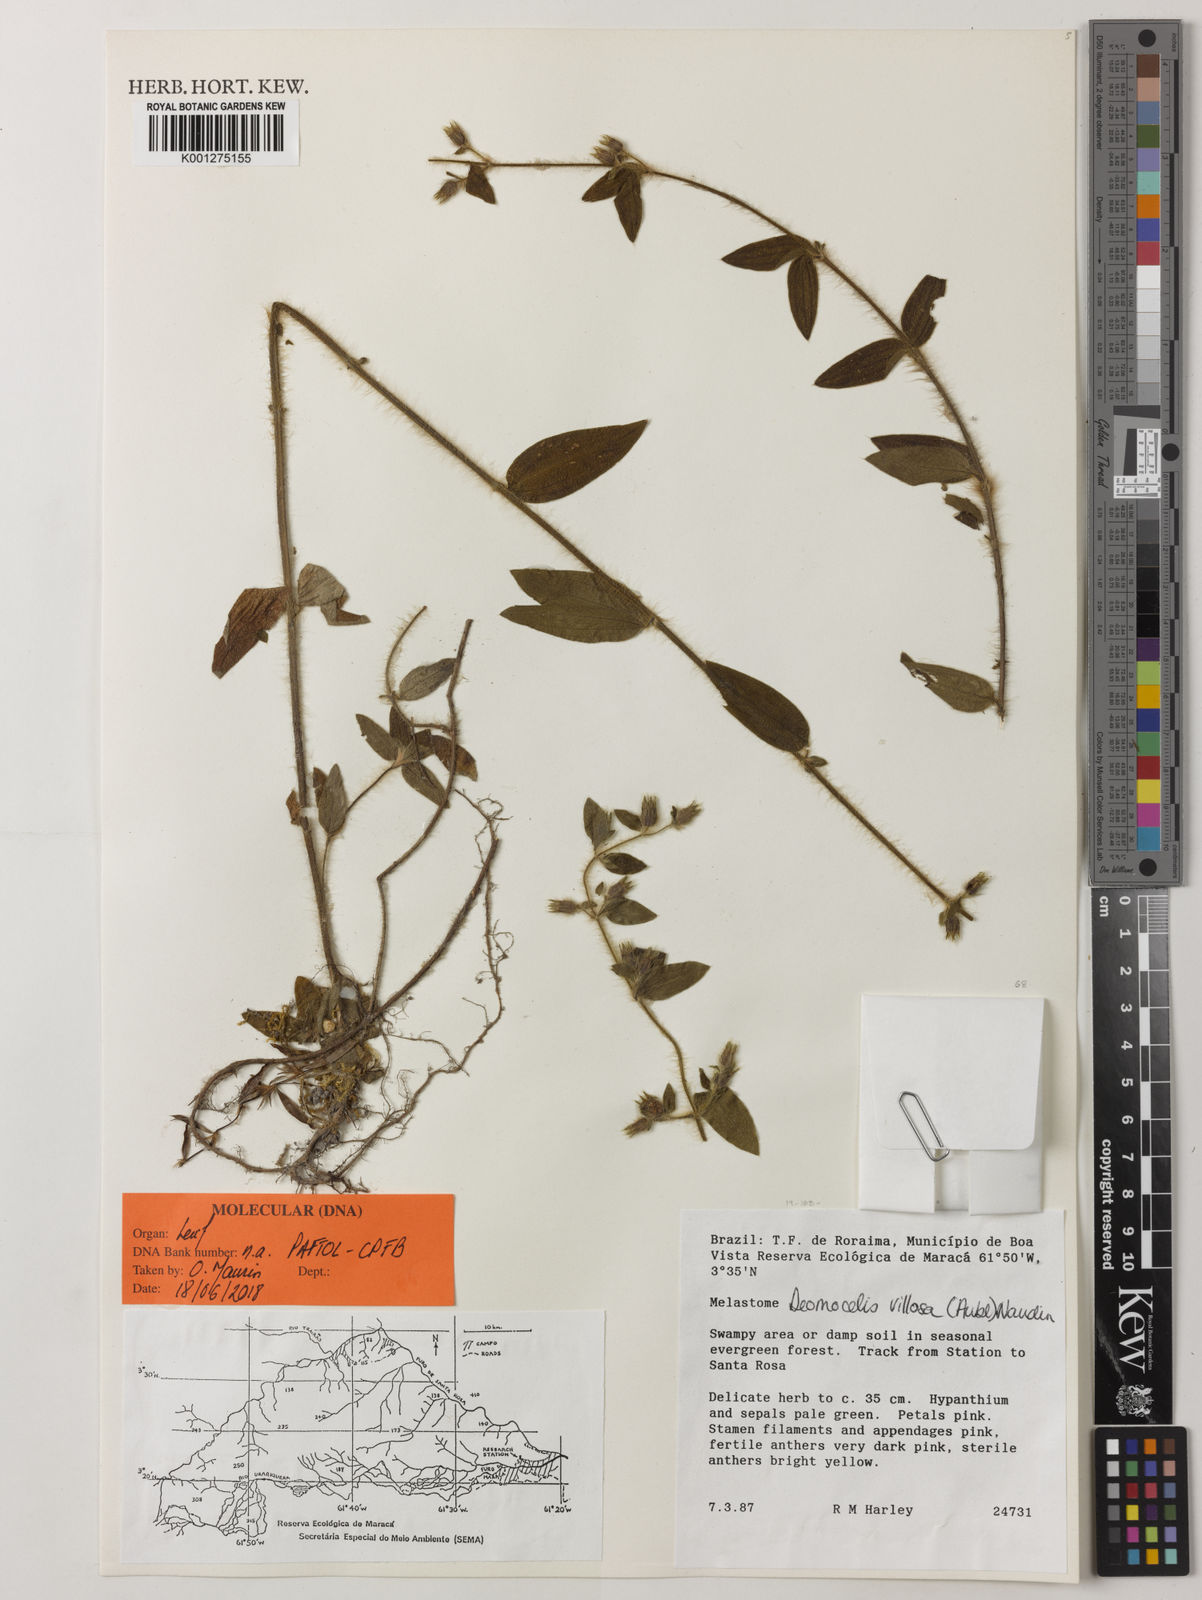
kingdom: Plantae
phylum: Tracheophyta
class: Magnoliopsida
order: Myrtales
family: Melastomataceae
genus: Desmoscelis
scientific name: Desmoscelis villosa
